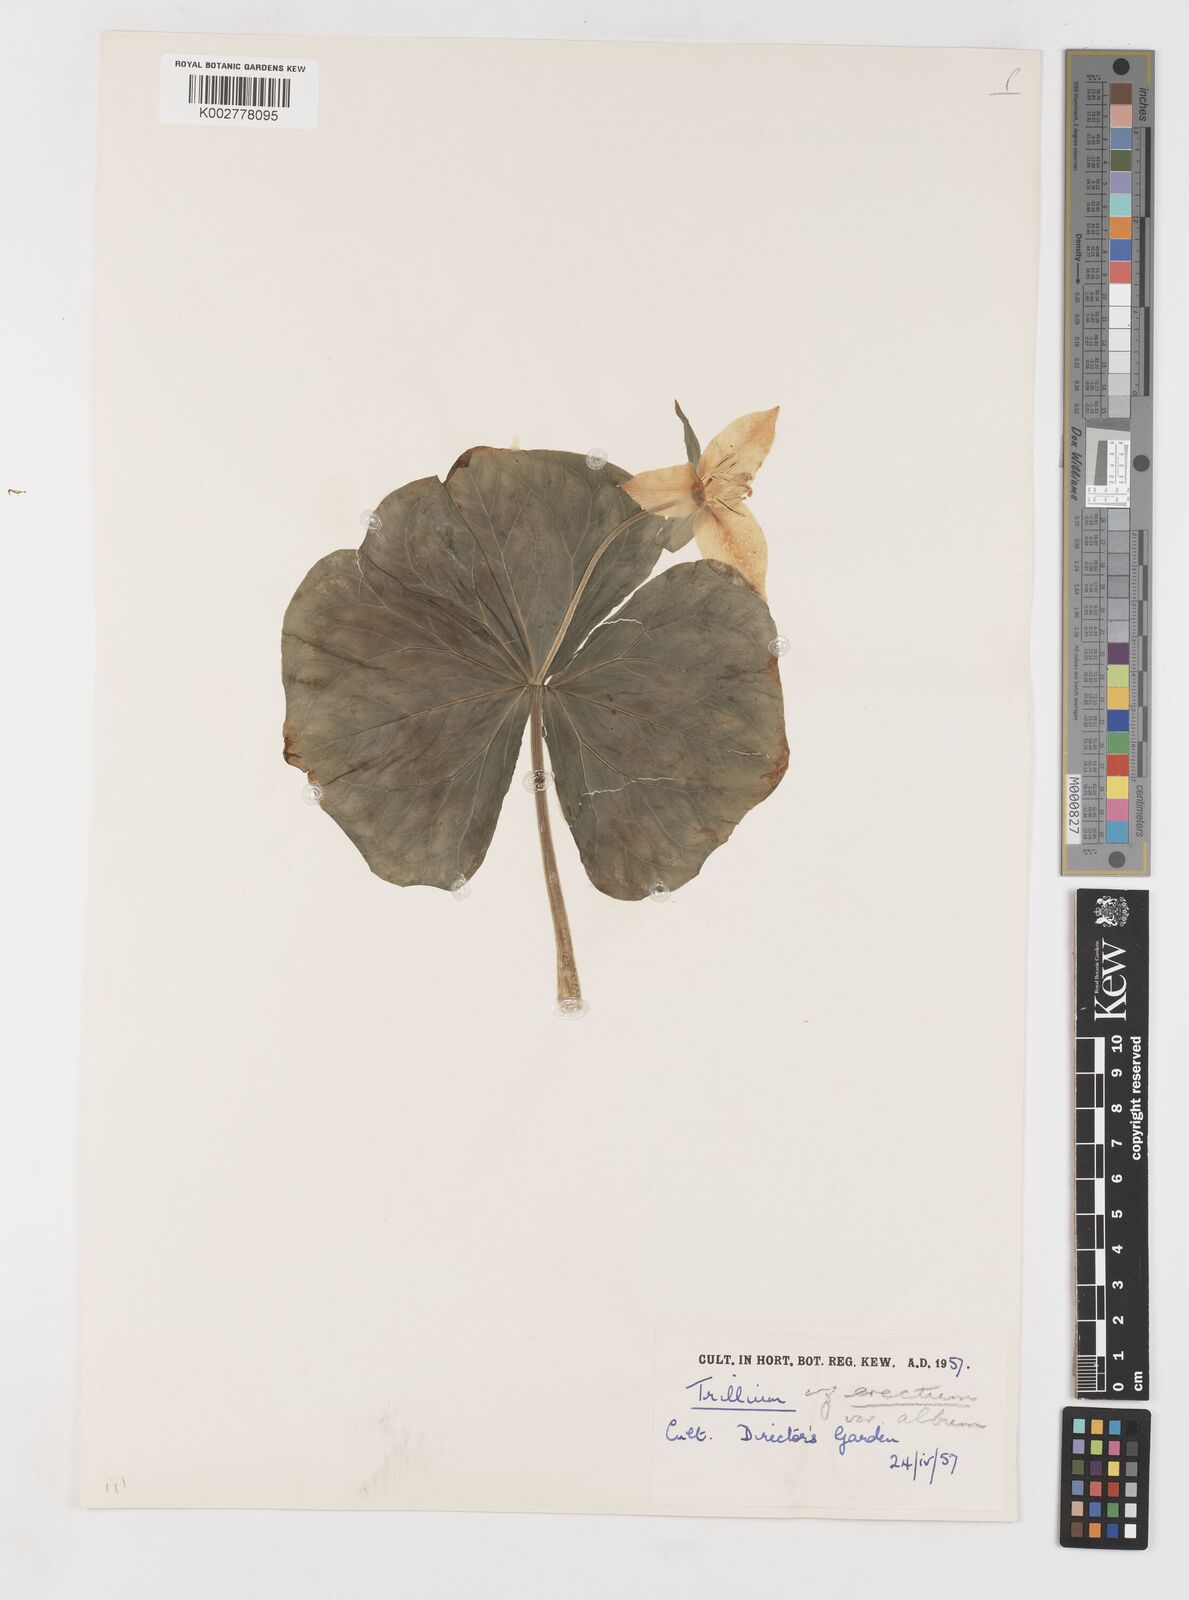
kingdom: Plantae
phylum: Tracheophyta
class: Liliopsida
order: Liliales
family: Melanthiaceae
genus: Trillium
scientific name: Trillium erectum
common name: Purple trillium
